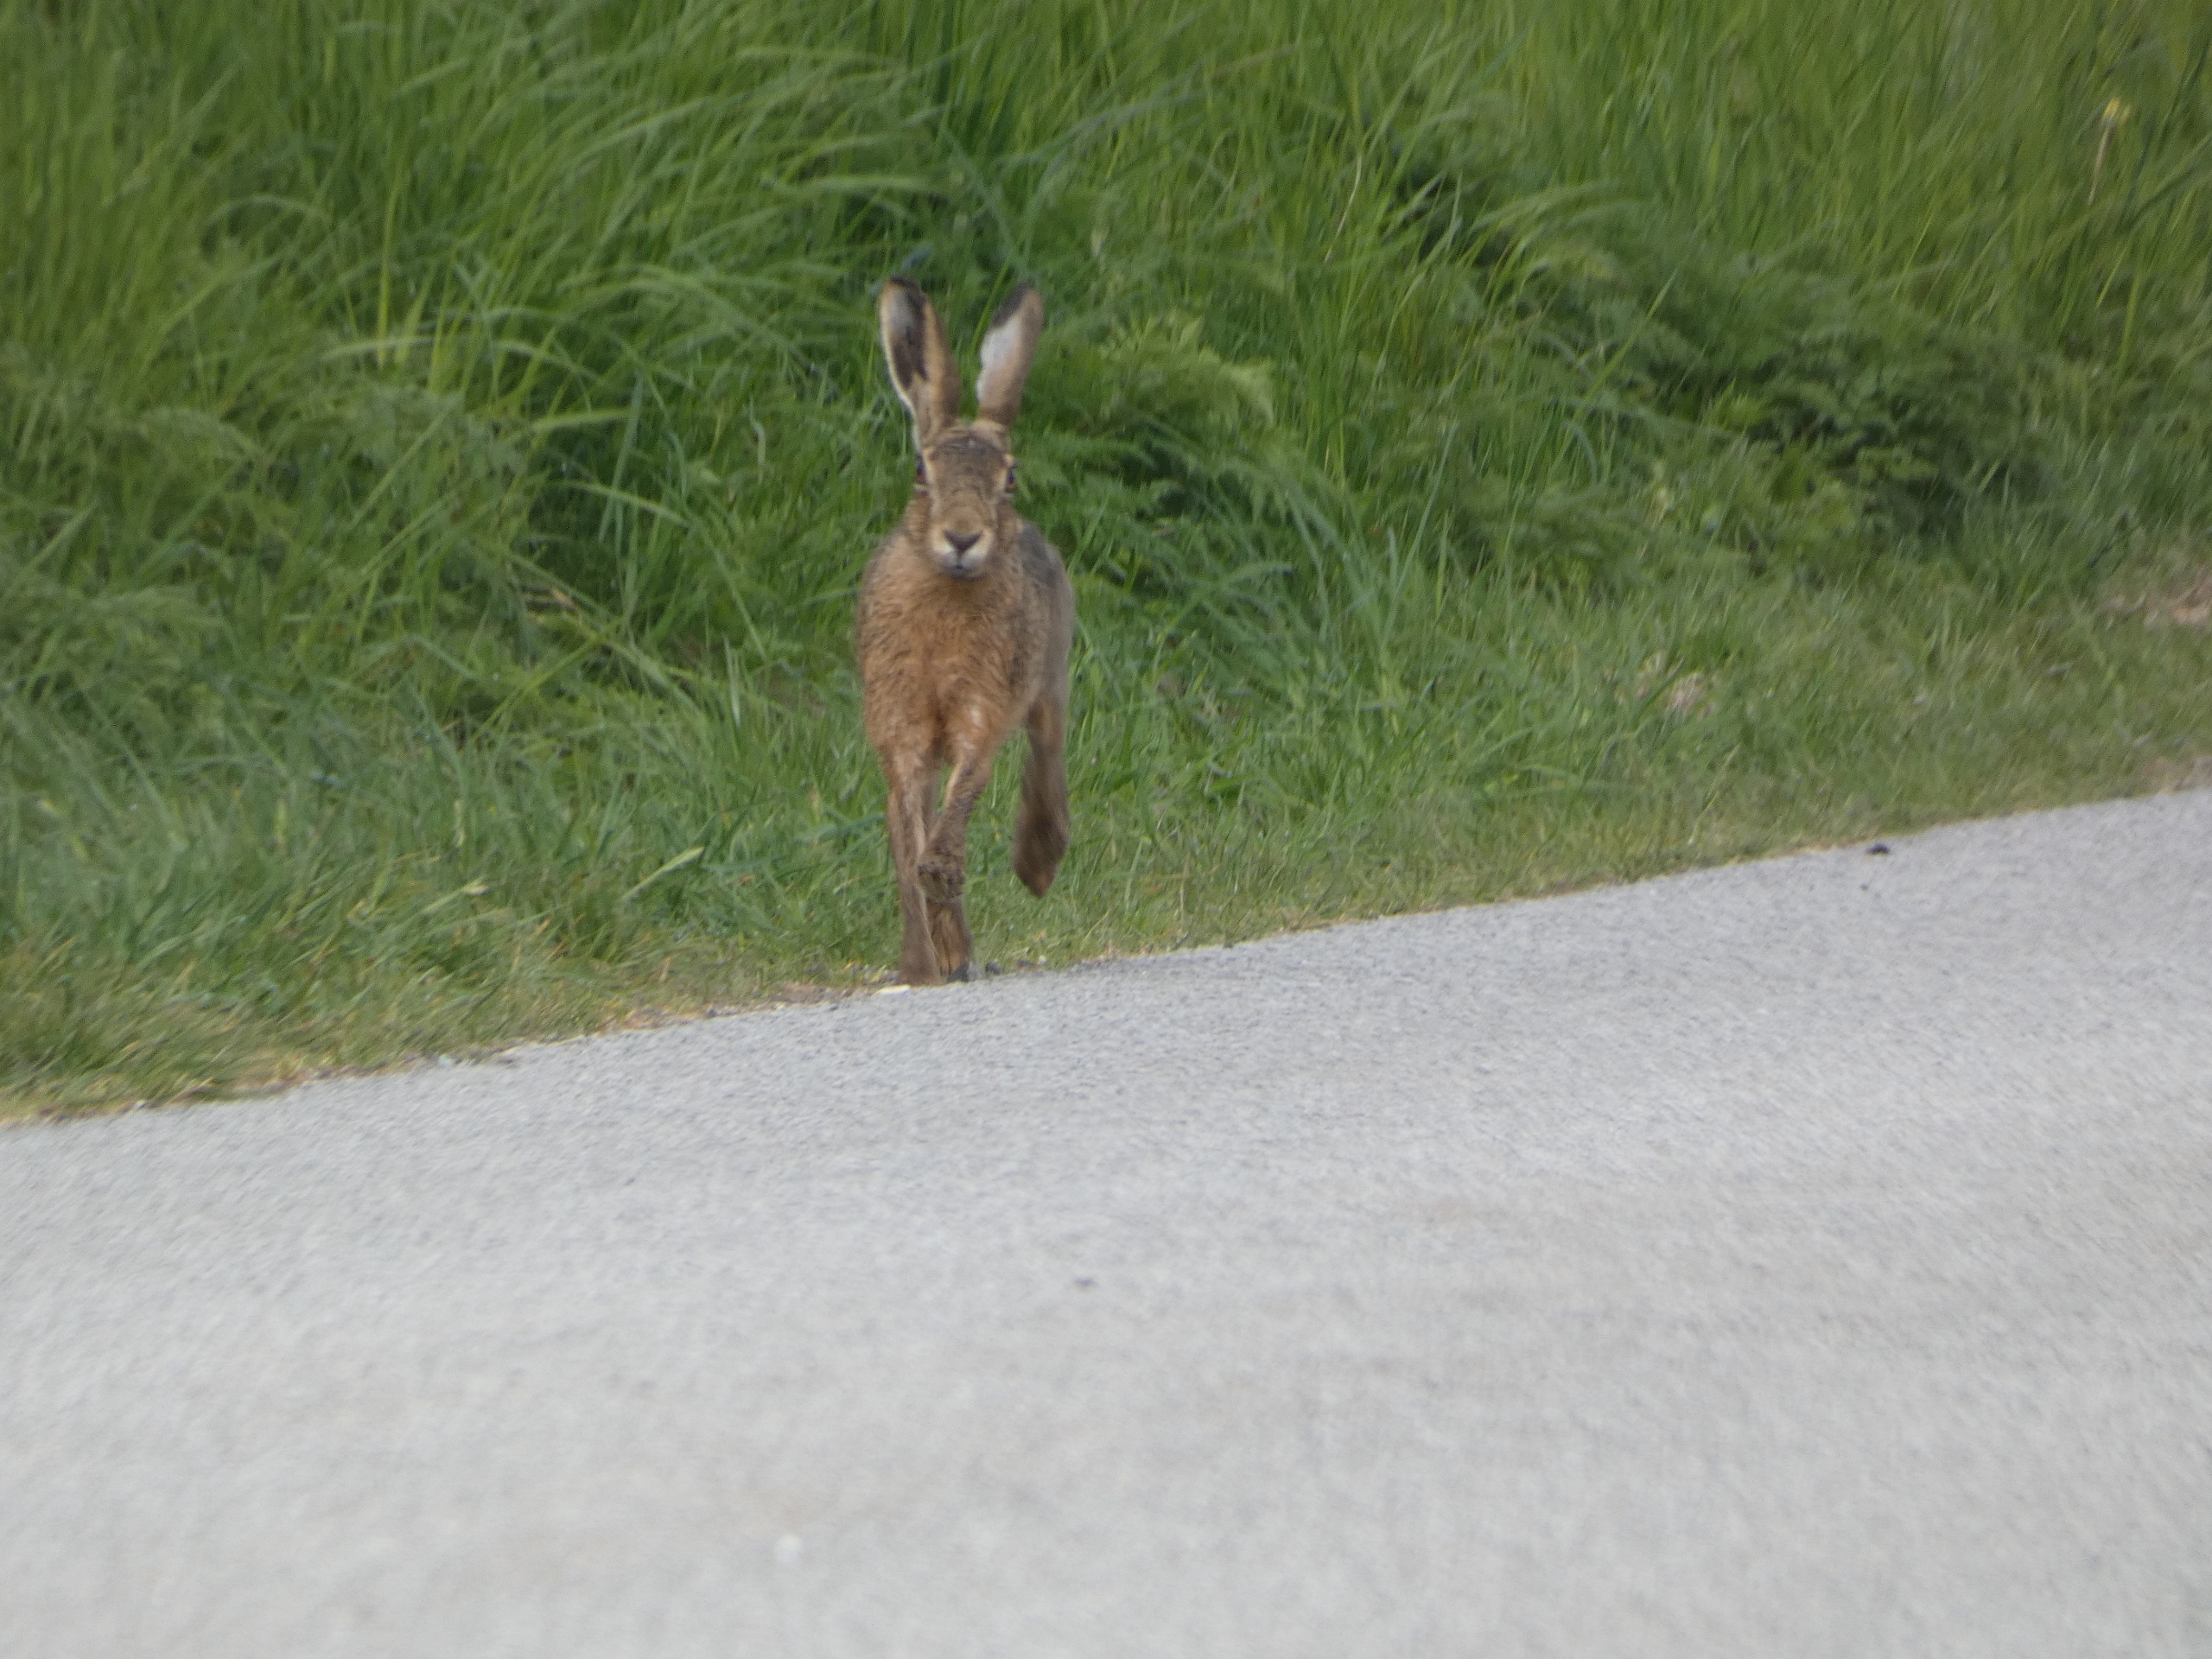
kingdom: Animalia
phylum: Chordata
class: Mammalia
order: Lagomorpha
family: Leporidae
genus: Lepus
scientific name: Lepus europaeus
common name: Hare
